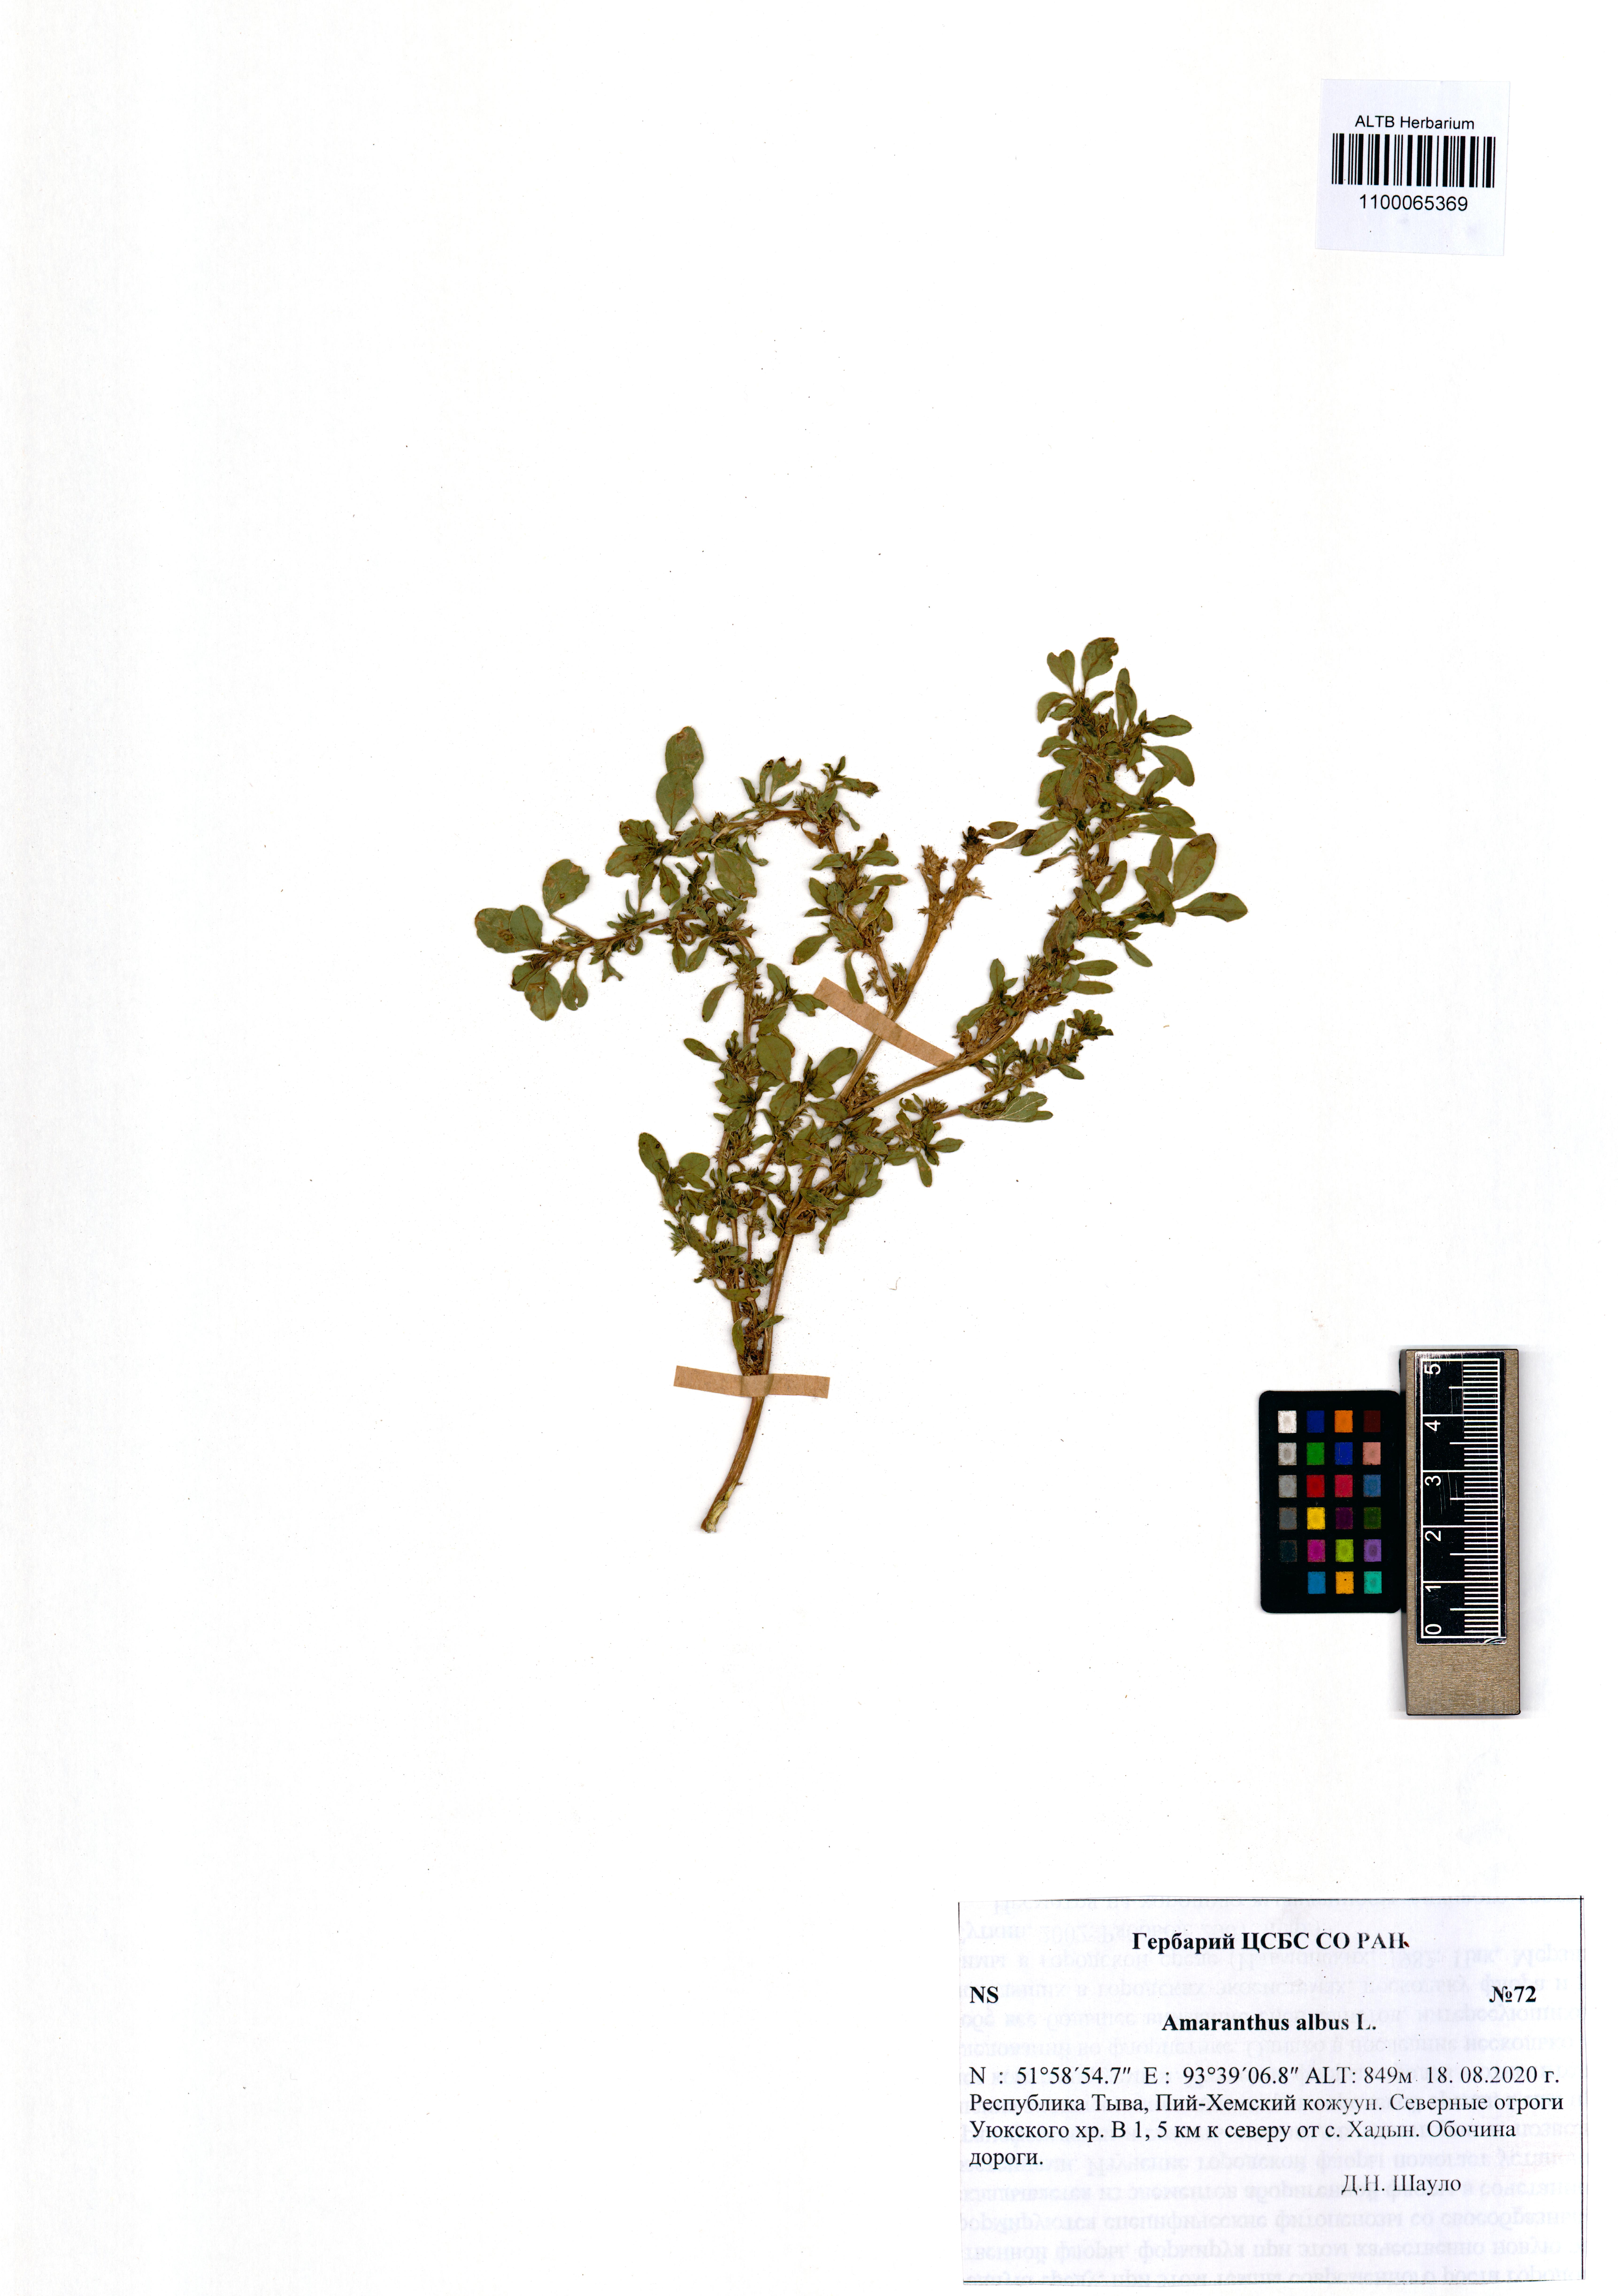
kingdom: Plantae
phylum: Tracheophyta
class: Magnoliopsida
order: Caryophyllales
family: Amaranthaceae
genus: Amaranthus
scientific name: Amaranthus albus
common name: White pigweed
